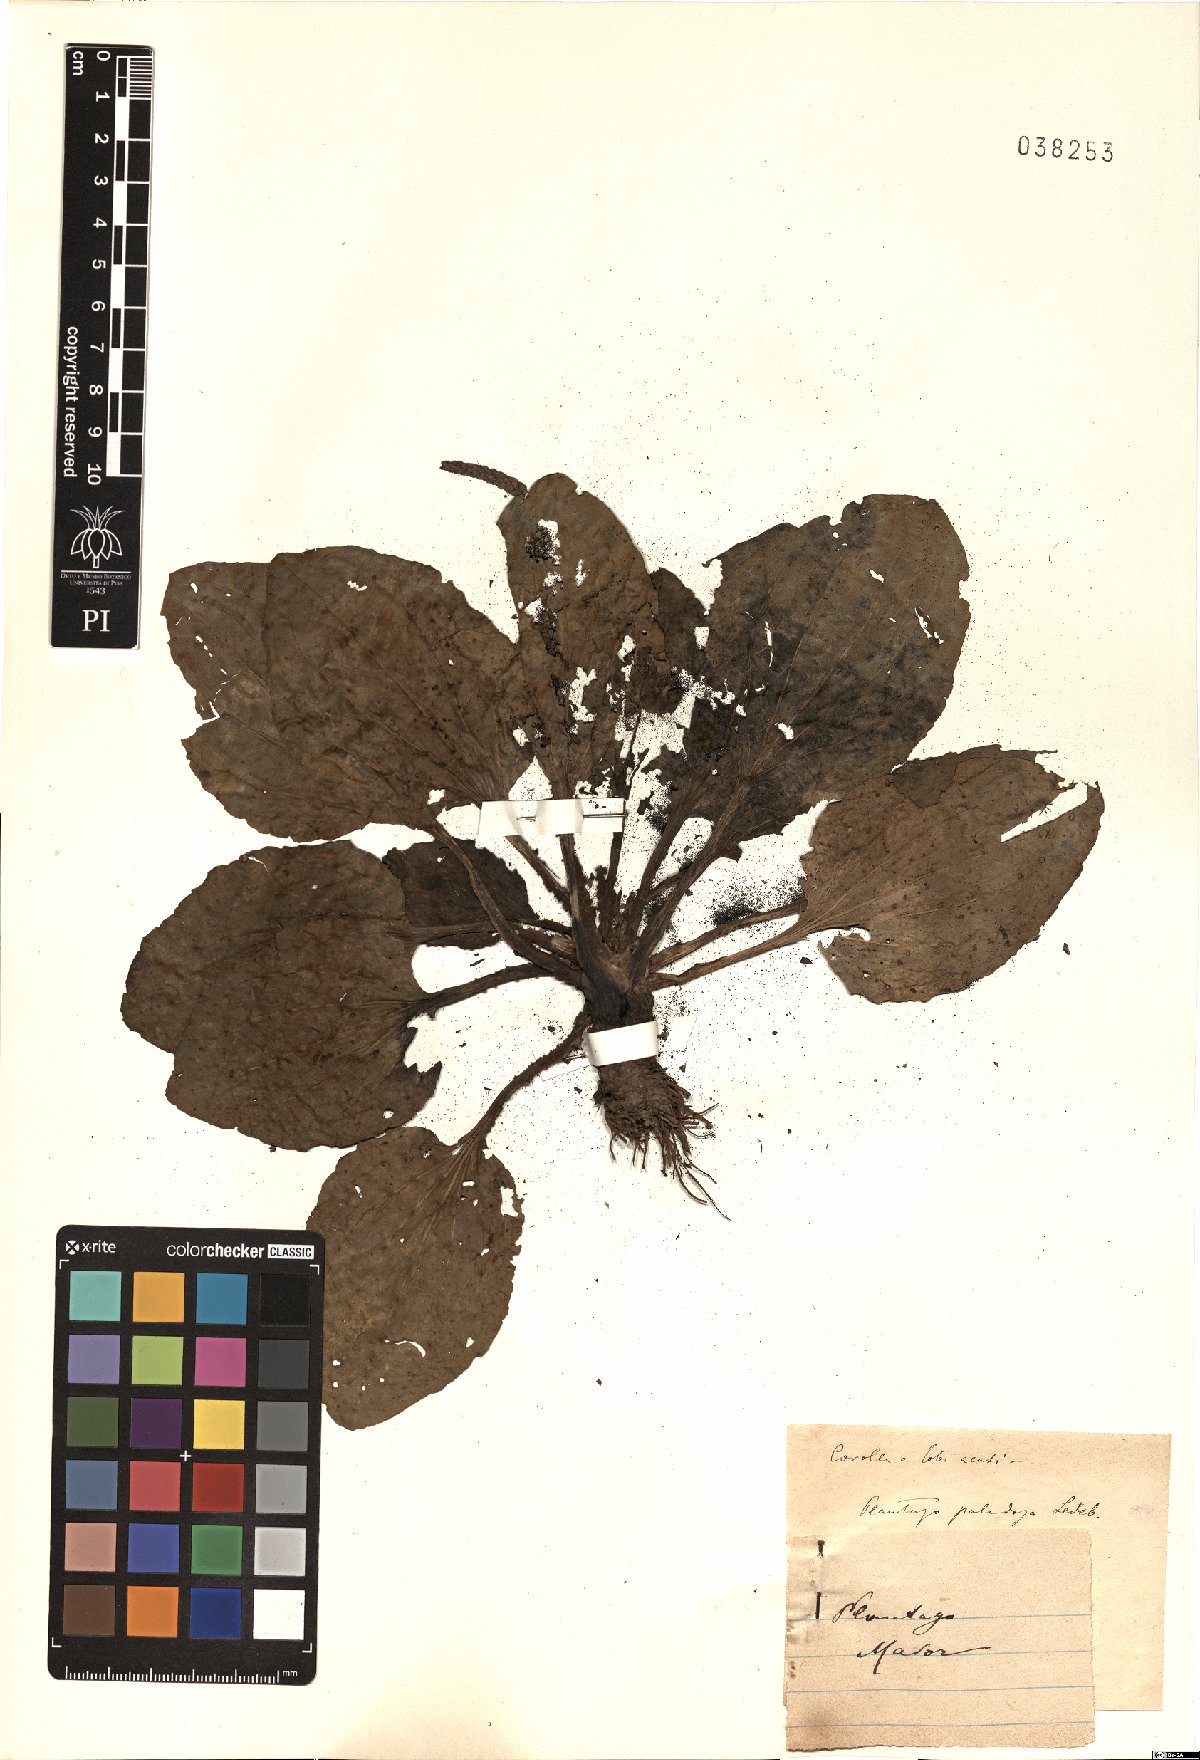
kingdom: Plantae
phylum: Tracheophyta
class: Magnoliopsida
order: Lamiales
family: Plantaginaceae
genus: Plantago
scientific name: Plantago major
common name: Common plantain
